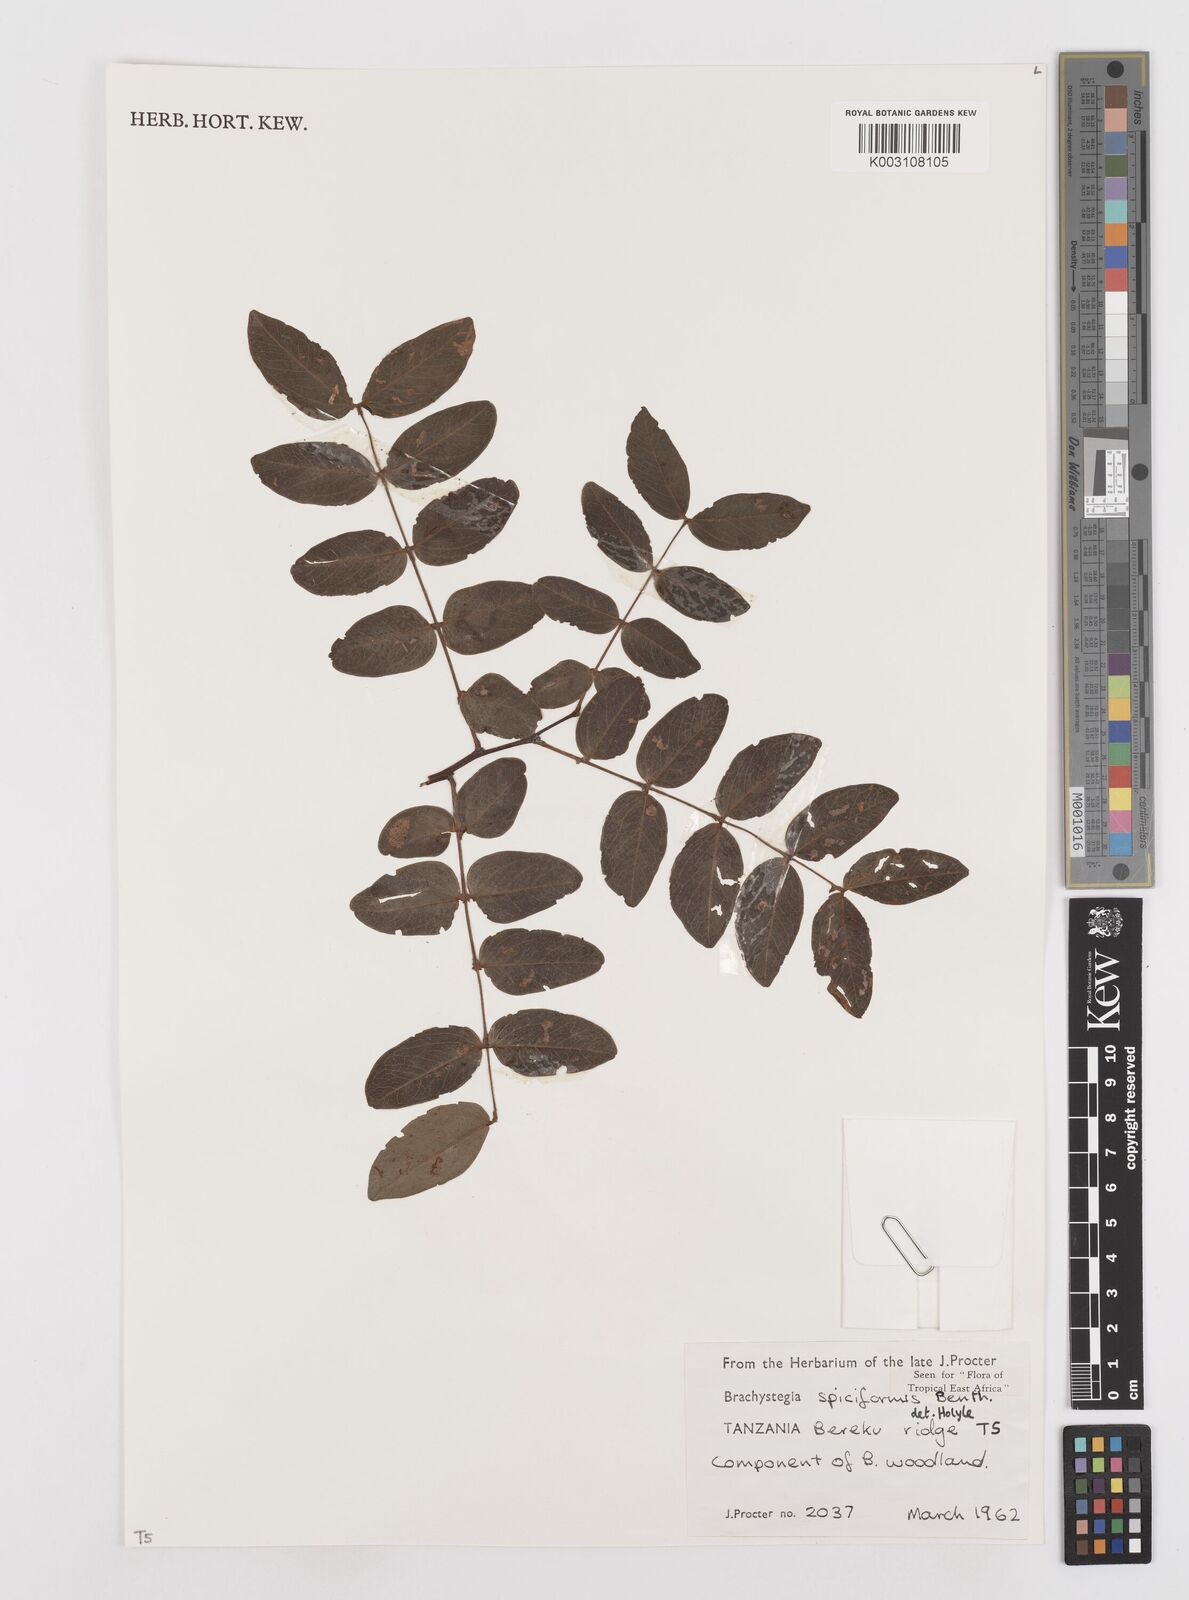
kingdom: Plantae
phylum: Tracheophyta
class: Magnoliopsida
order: Fabales
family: Fabaceae
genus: Brachystegia
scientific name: Brachystegia spiciformis
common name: Zebrawood
